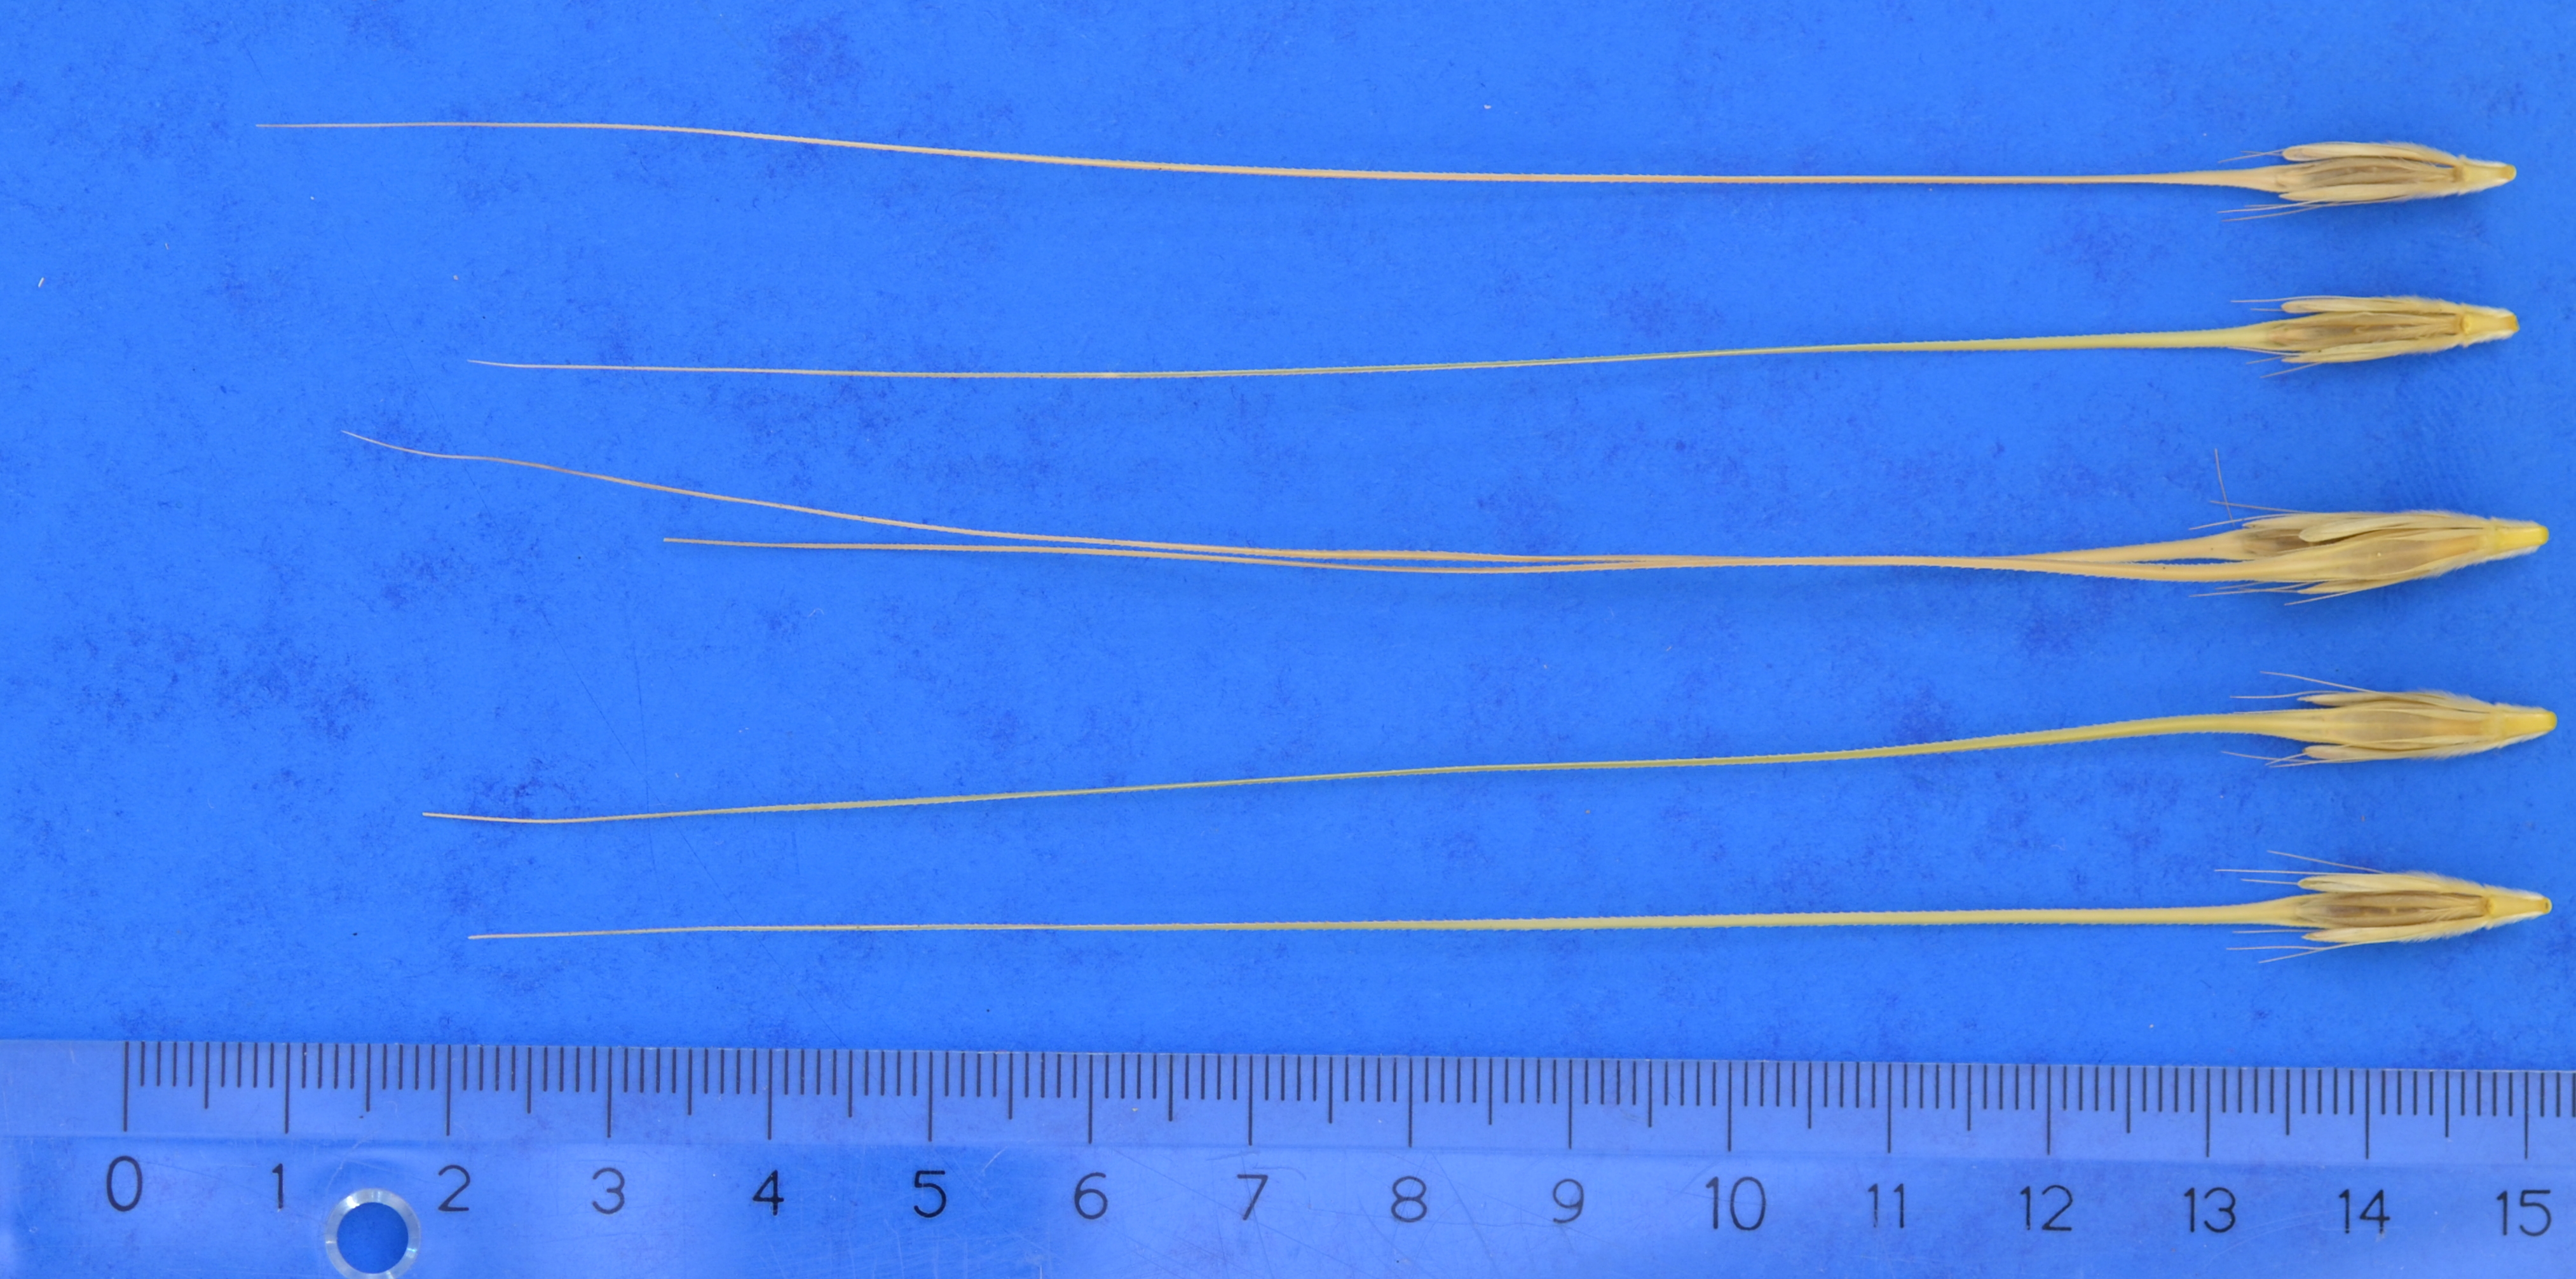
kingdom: Plantae
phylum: Tracheophyta
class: Liliopsida
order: Poales
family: Poaceae
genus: Hordeum
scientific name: Hordeum spontaneum
